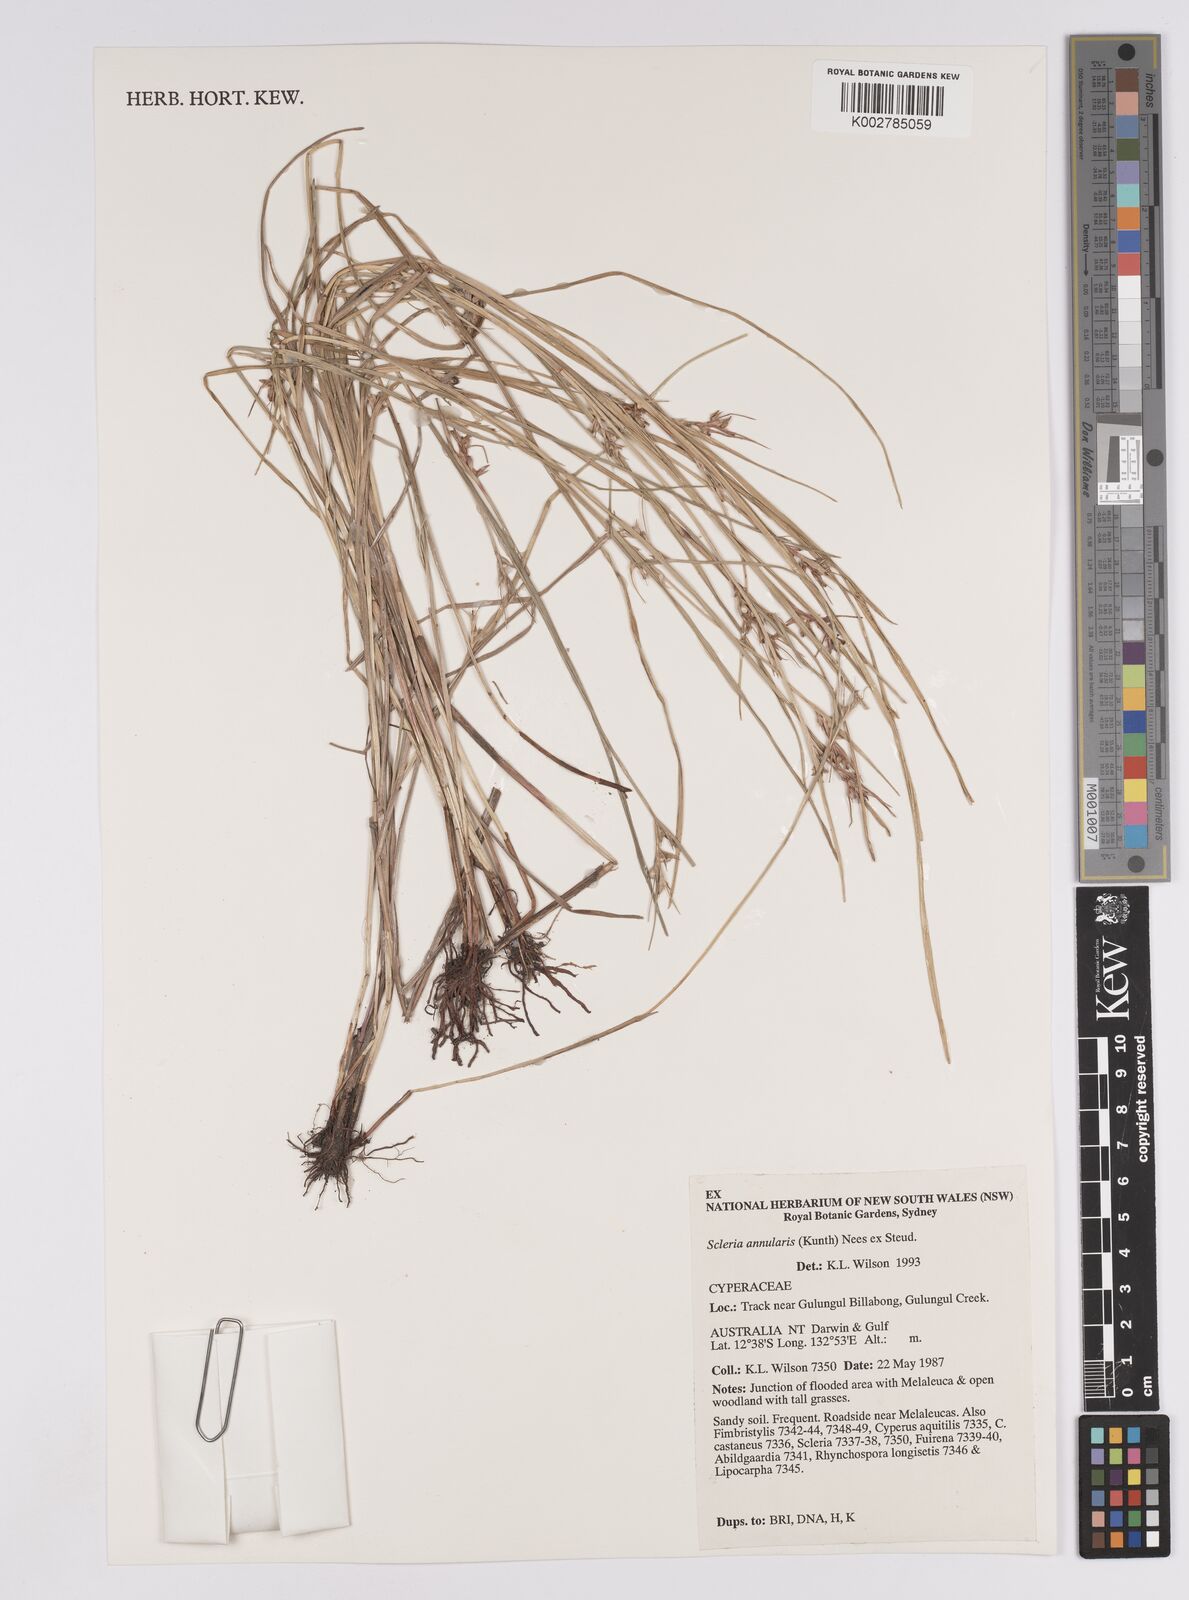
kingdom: Plantae
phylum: Tracheophyta
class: Liliopsida
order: Poales
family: Cyperaceae
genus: Scleria
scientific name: Scleria annularis
